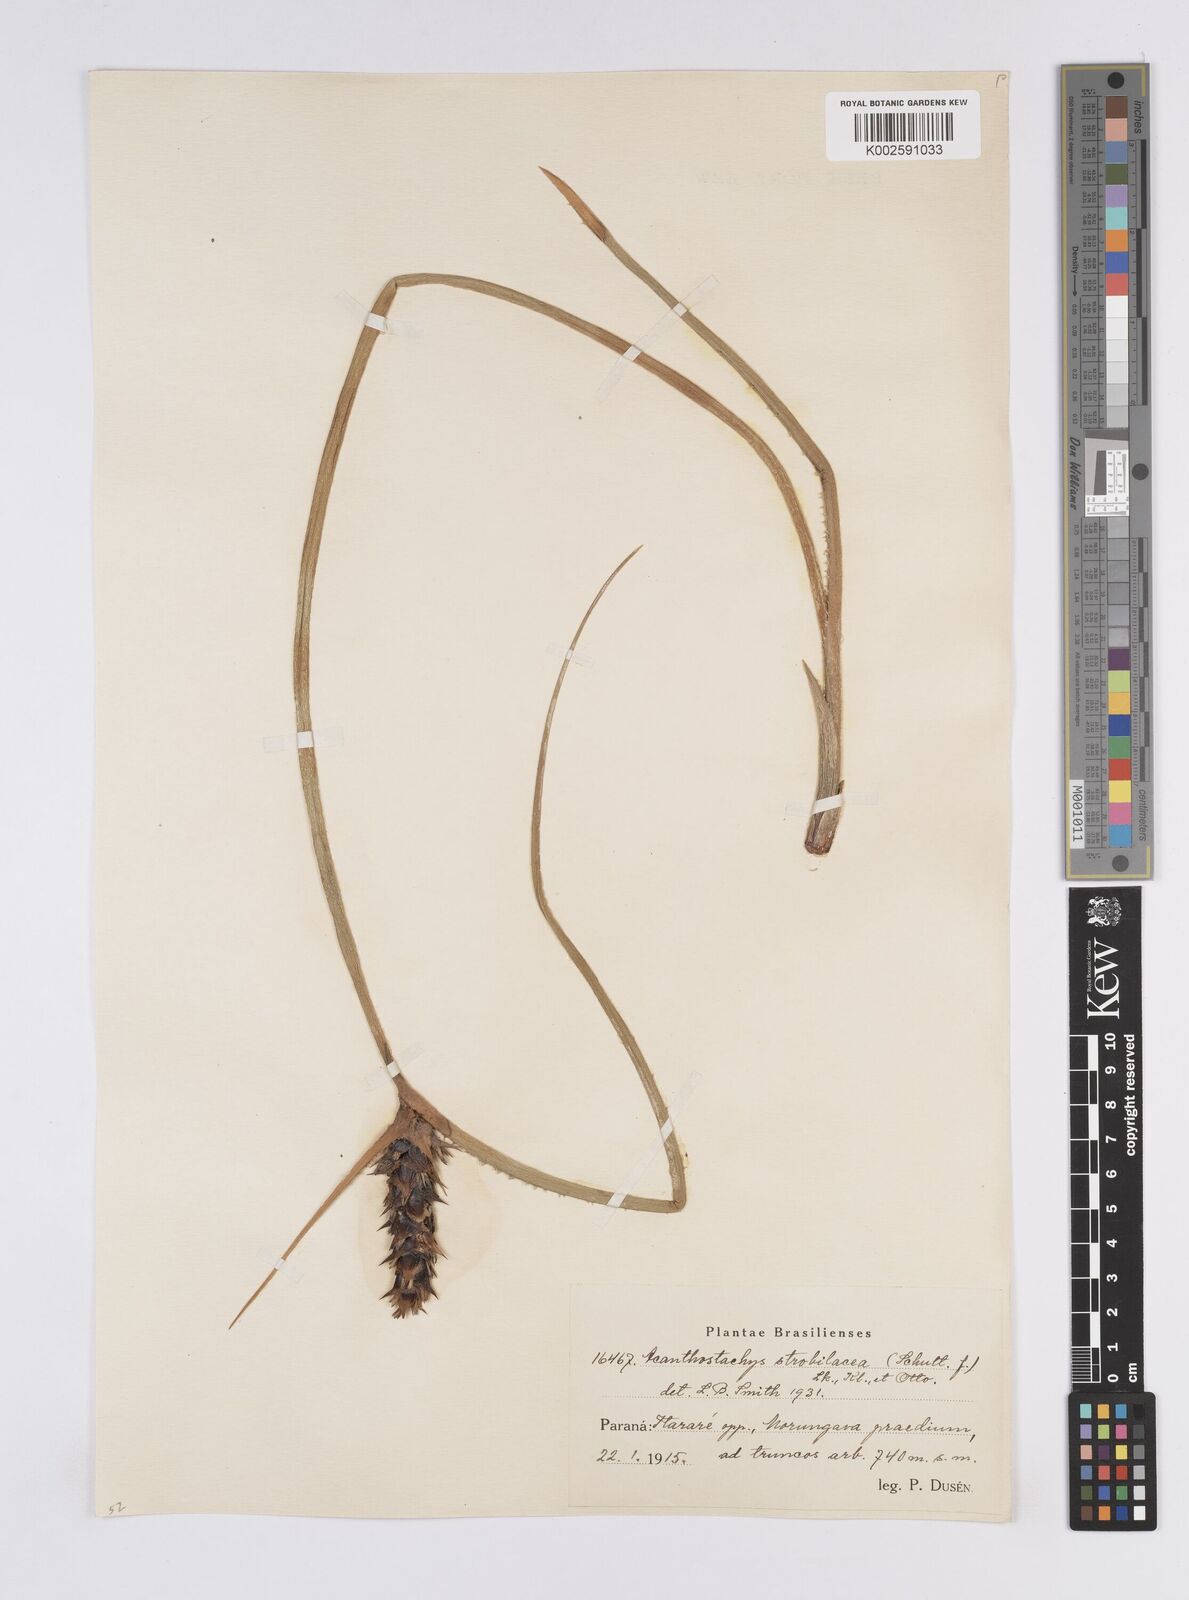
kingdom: Plantae
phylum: Tracheophyta
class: Liliopsida
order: Poales
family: Bromeliaceae
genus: Acanthostachys
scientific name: Acanthostachys strobilacea
